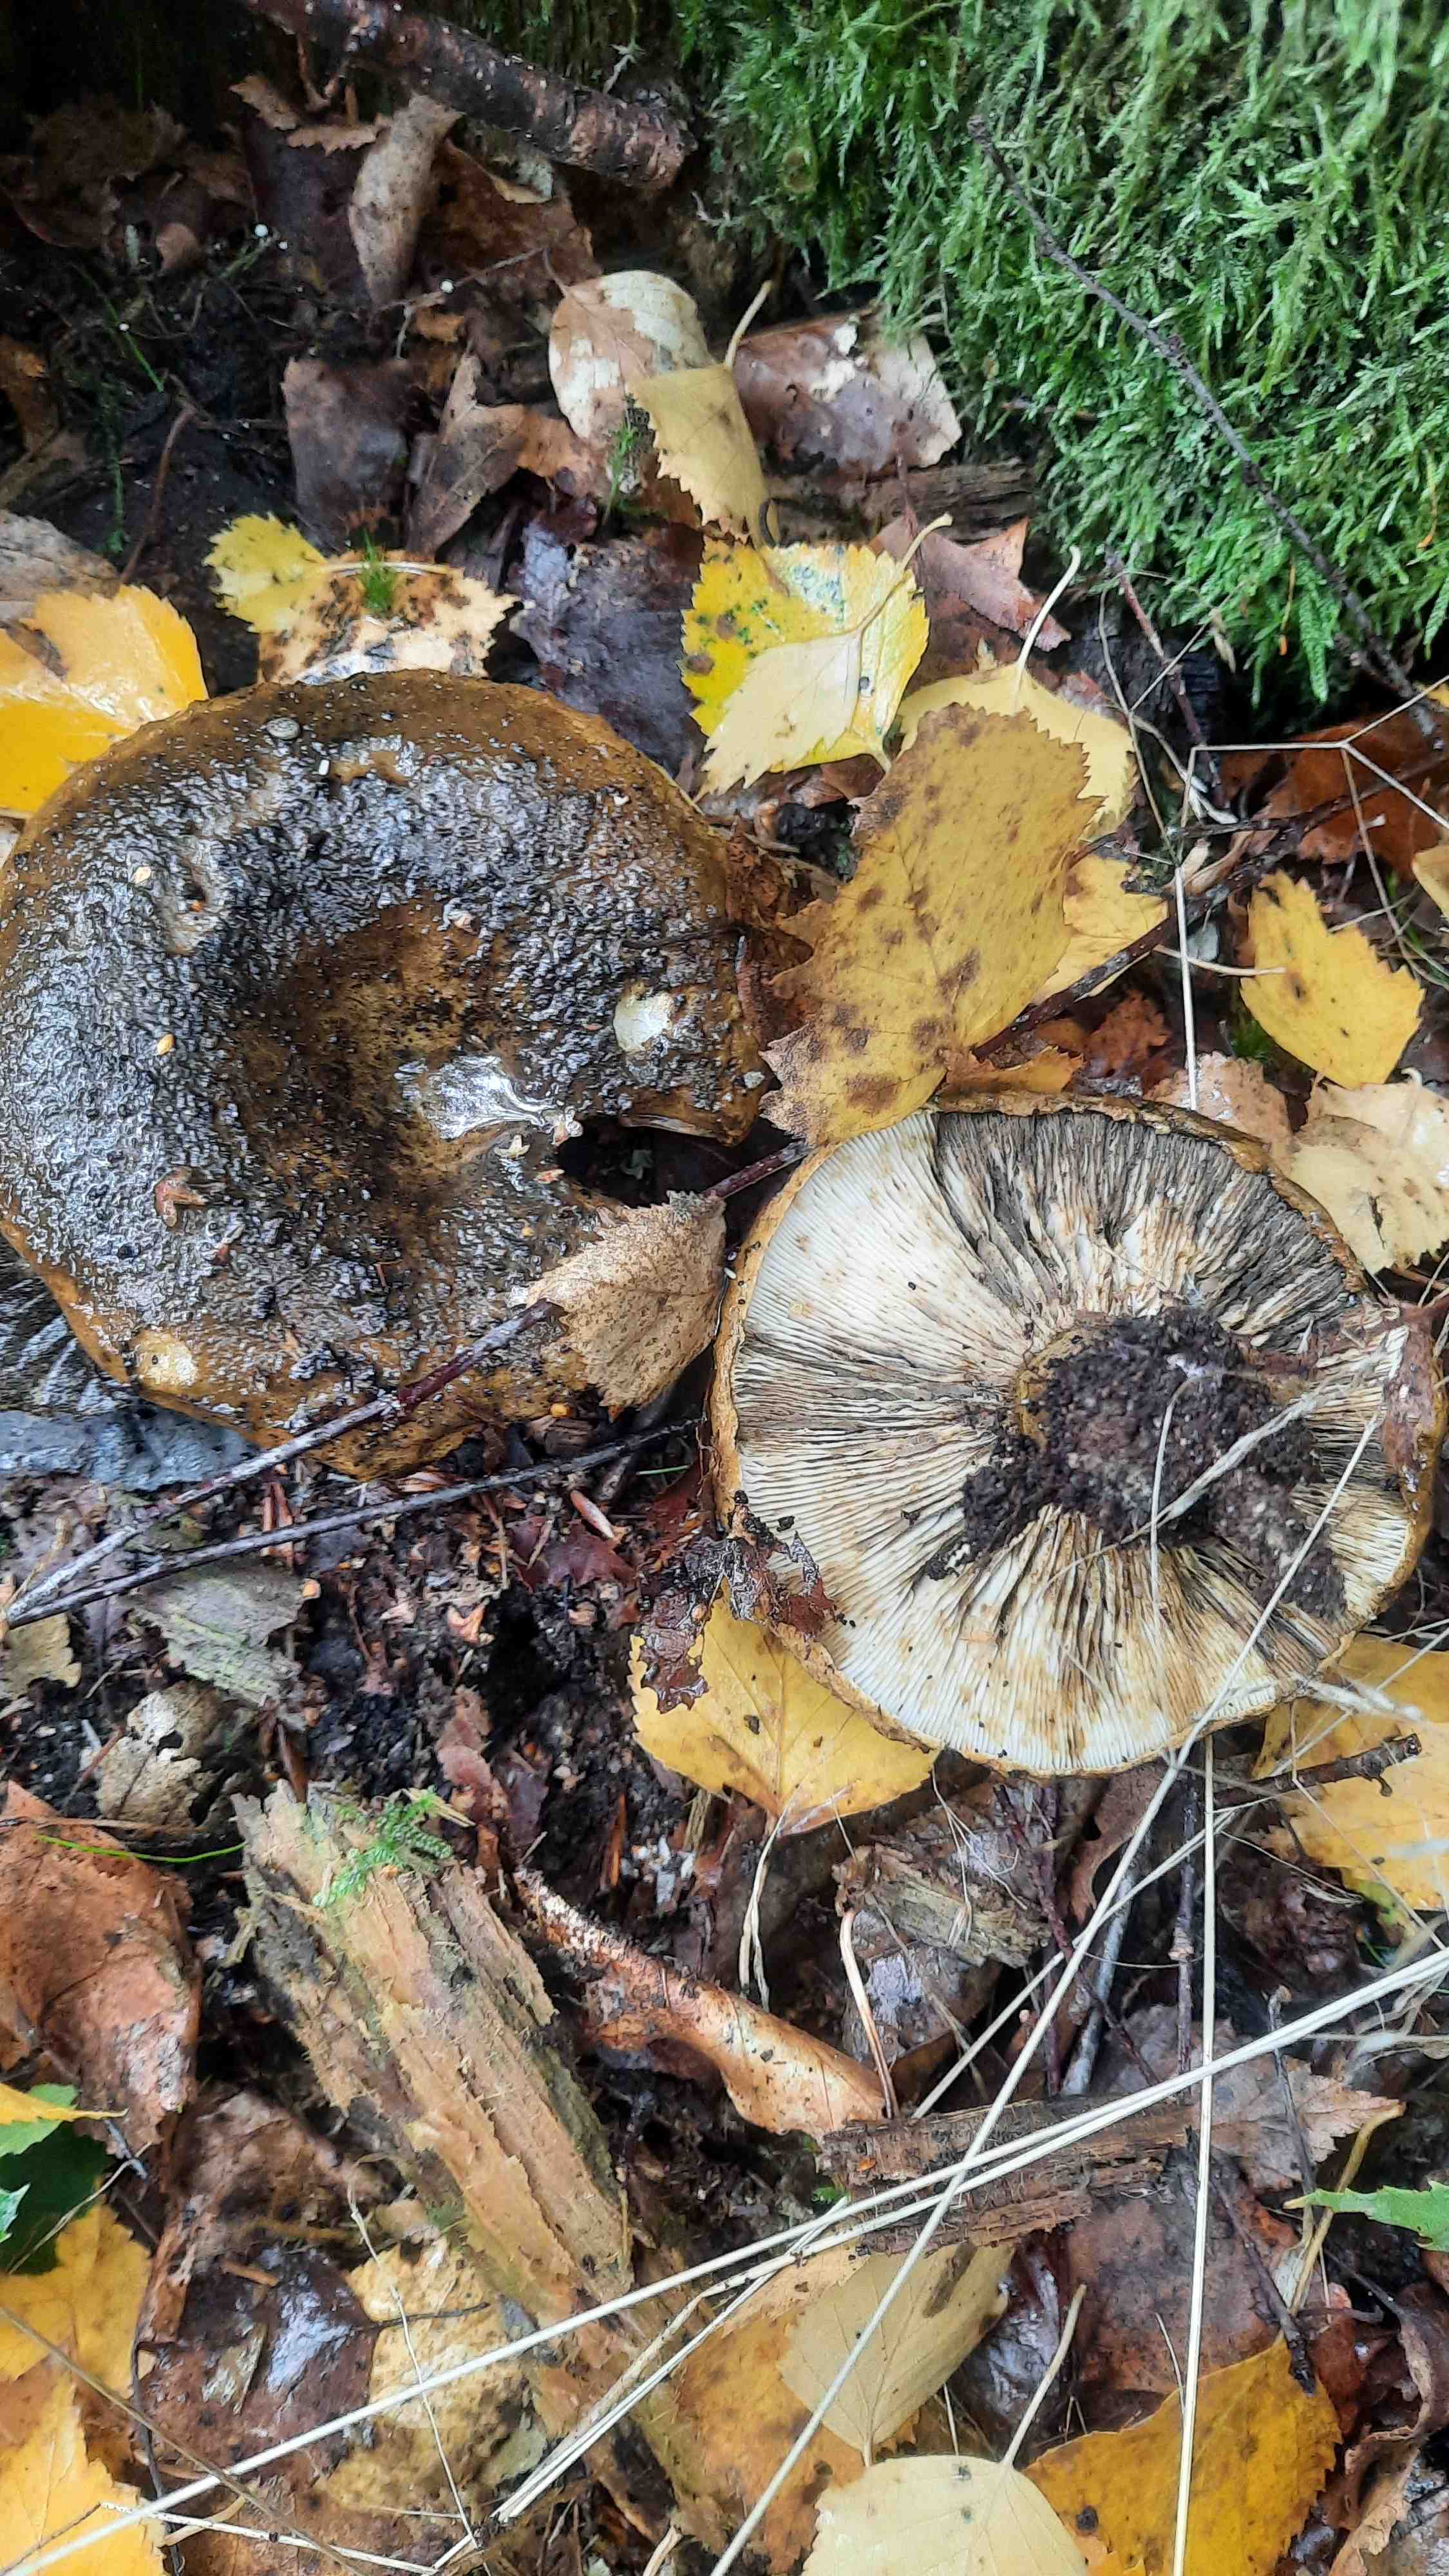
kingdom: Fungi
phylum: Basidiomycota
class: Agaricomycetes
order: Russulales
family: Russulaceae
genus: Lactarius
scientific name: Lactarius necator
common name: manddraber-mælkehat
